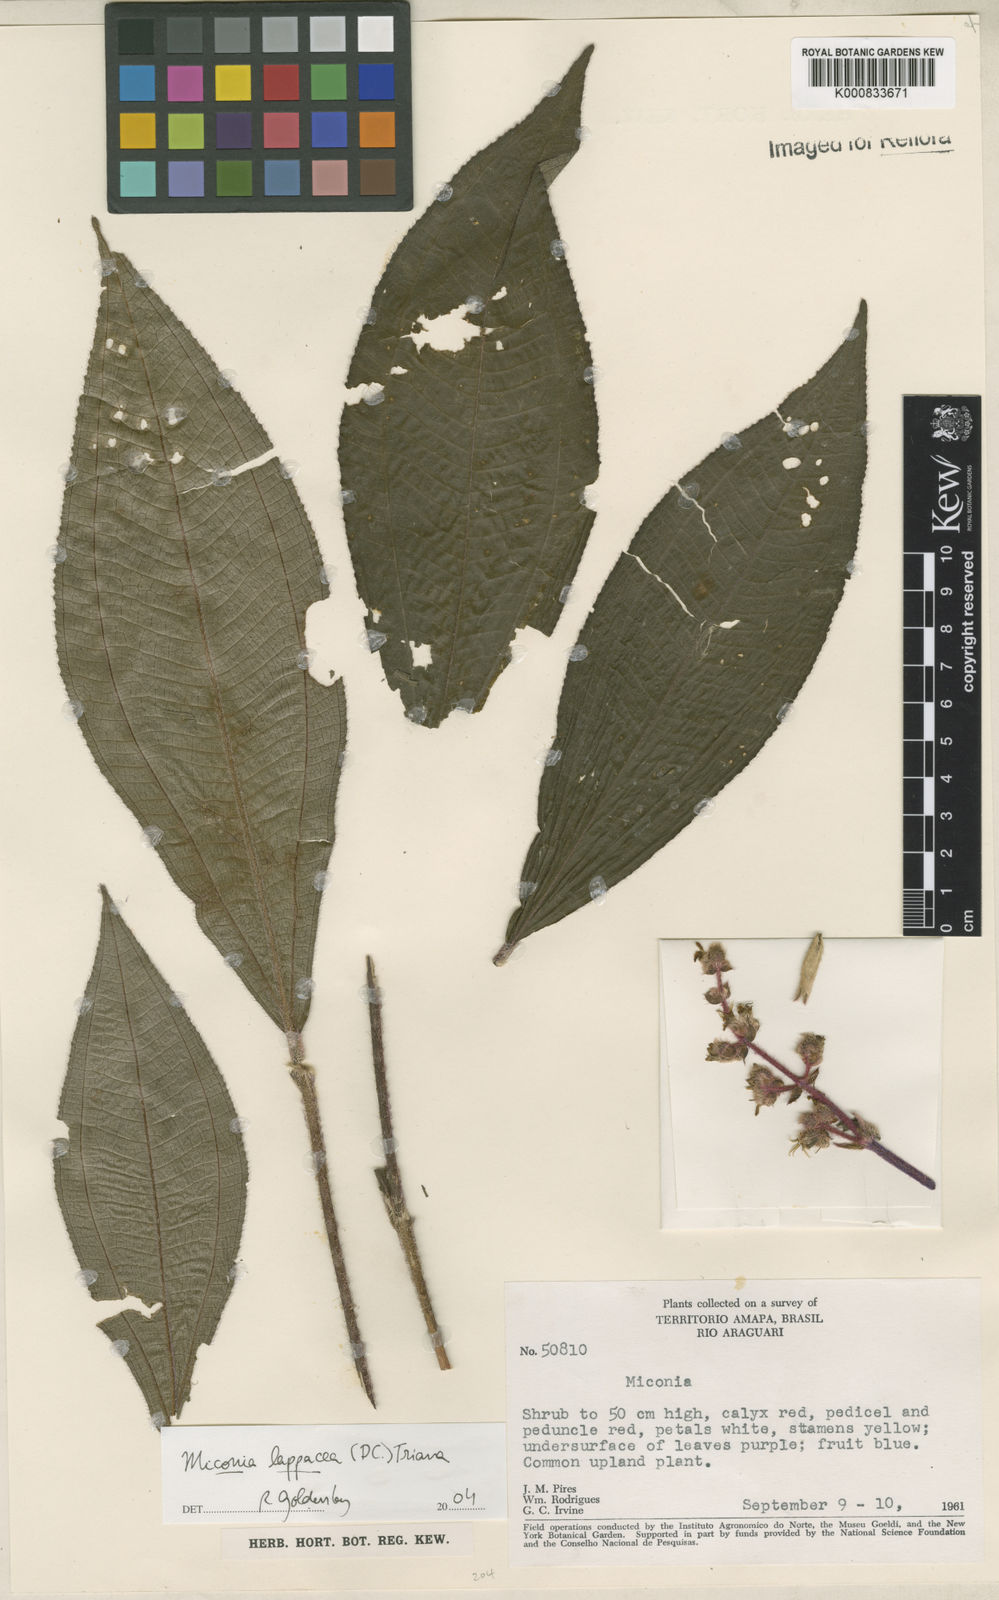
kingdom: Plantae
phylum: Tracheophyta
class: Magnoliopsida
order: Myrtales
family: Melastomataceae
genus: Miconia
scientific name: Miconia lappacea
